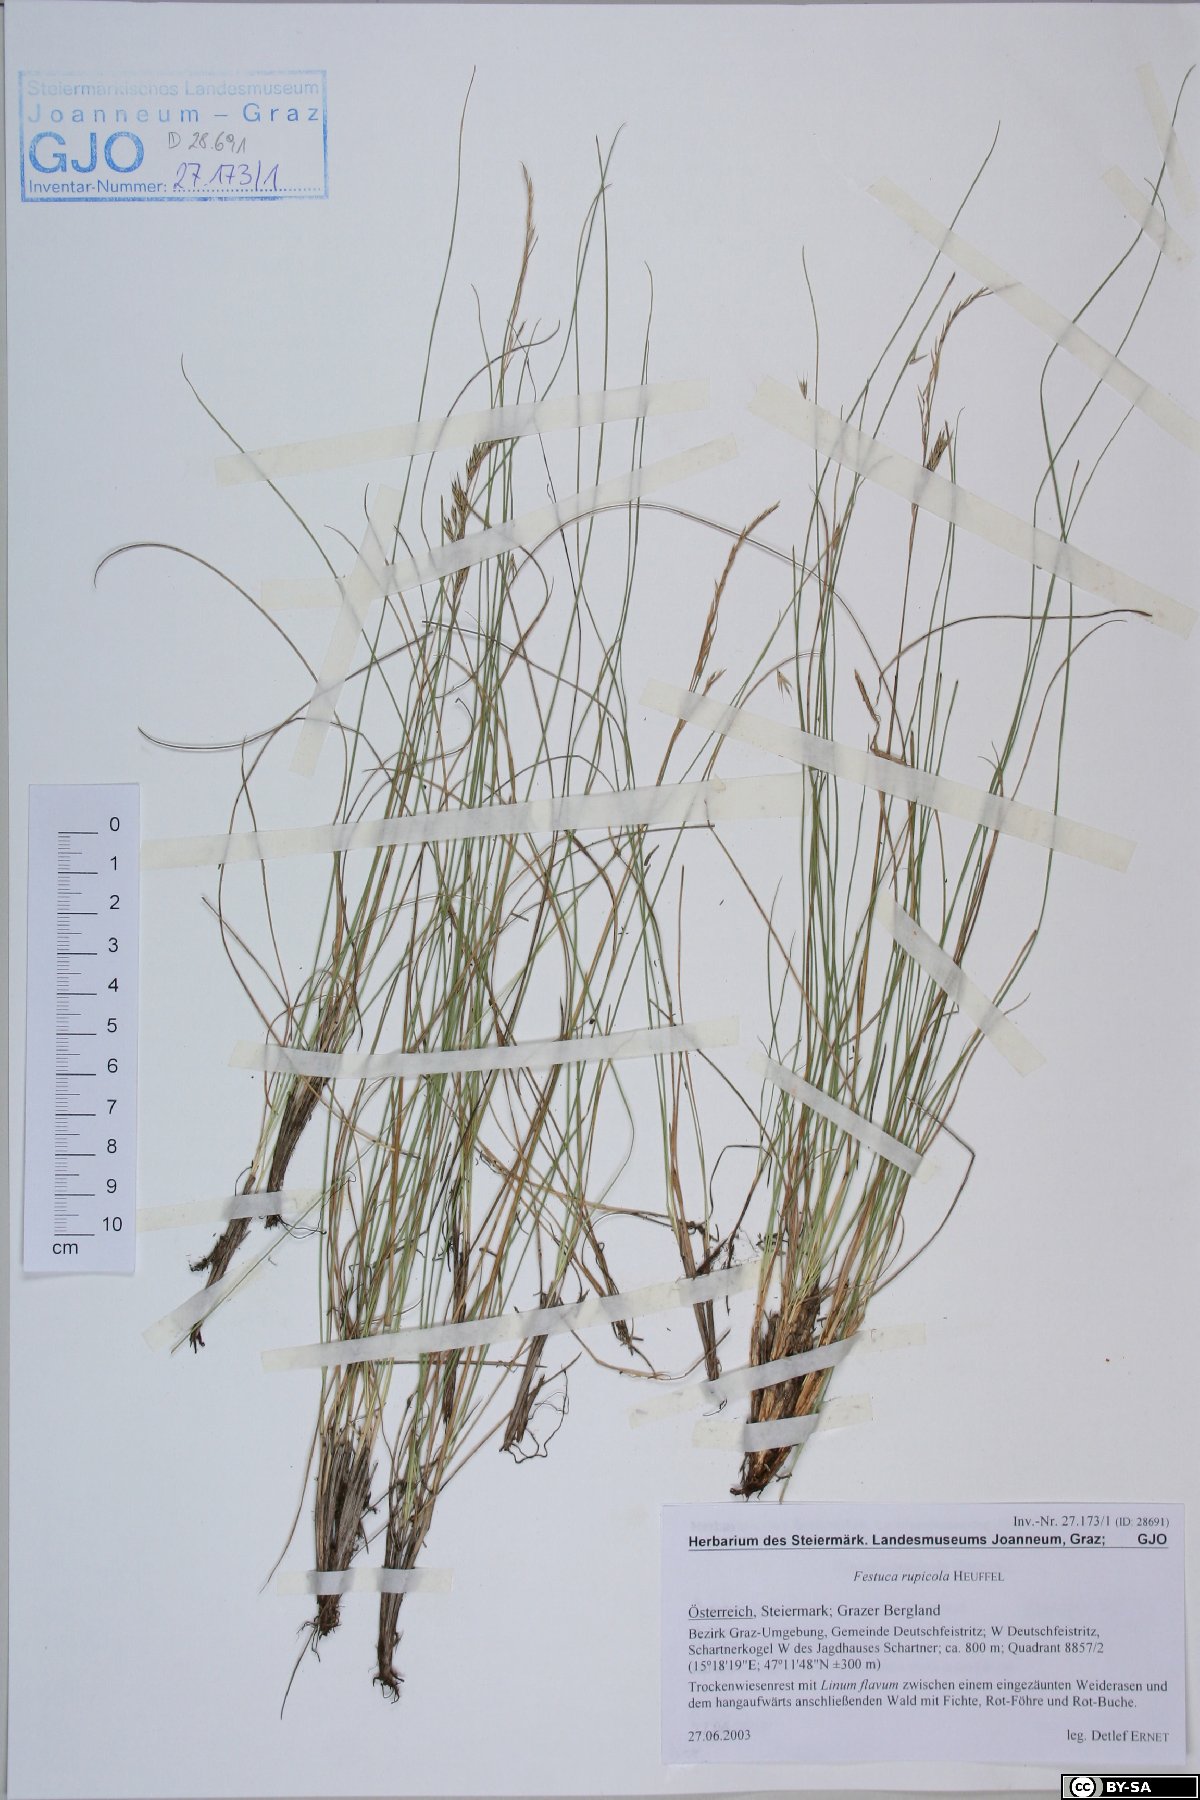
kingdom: Plantae
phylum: Tracheophyta
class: Liliopsida
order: Poales
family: Poaceae
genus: Festuca
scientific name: Festuca rupicola
